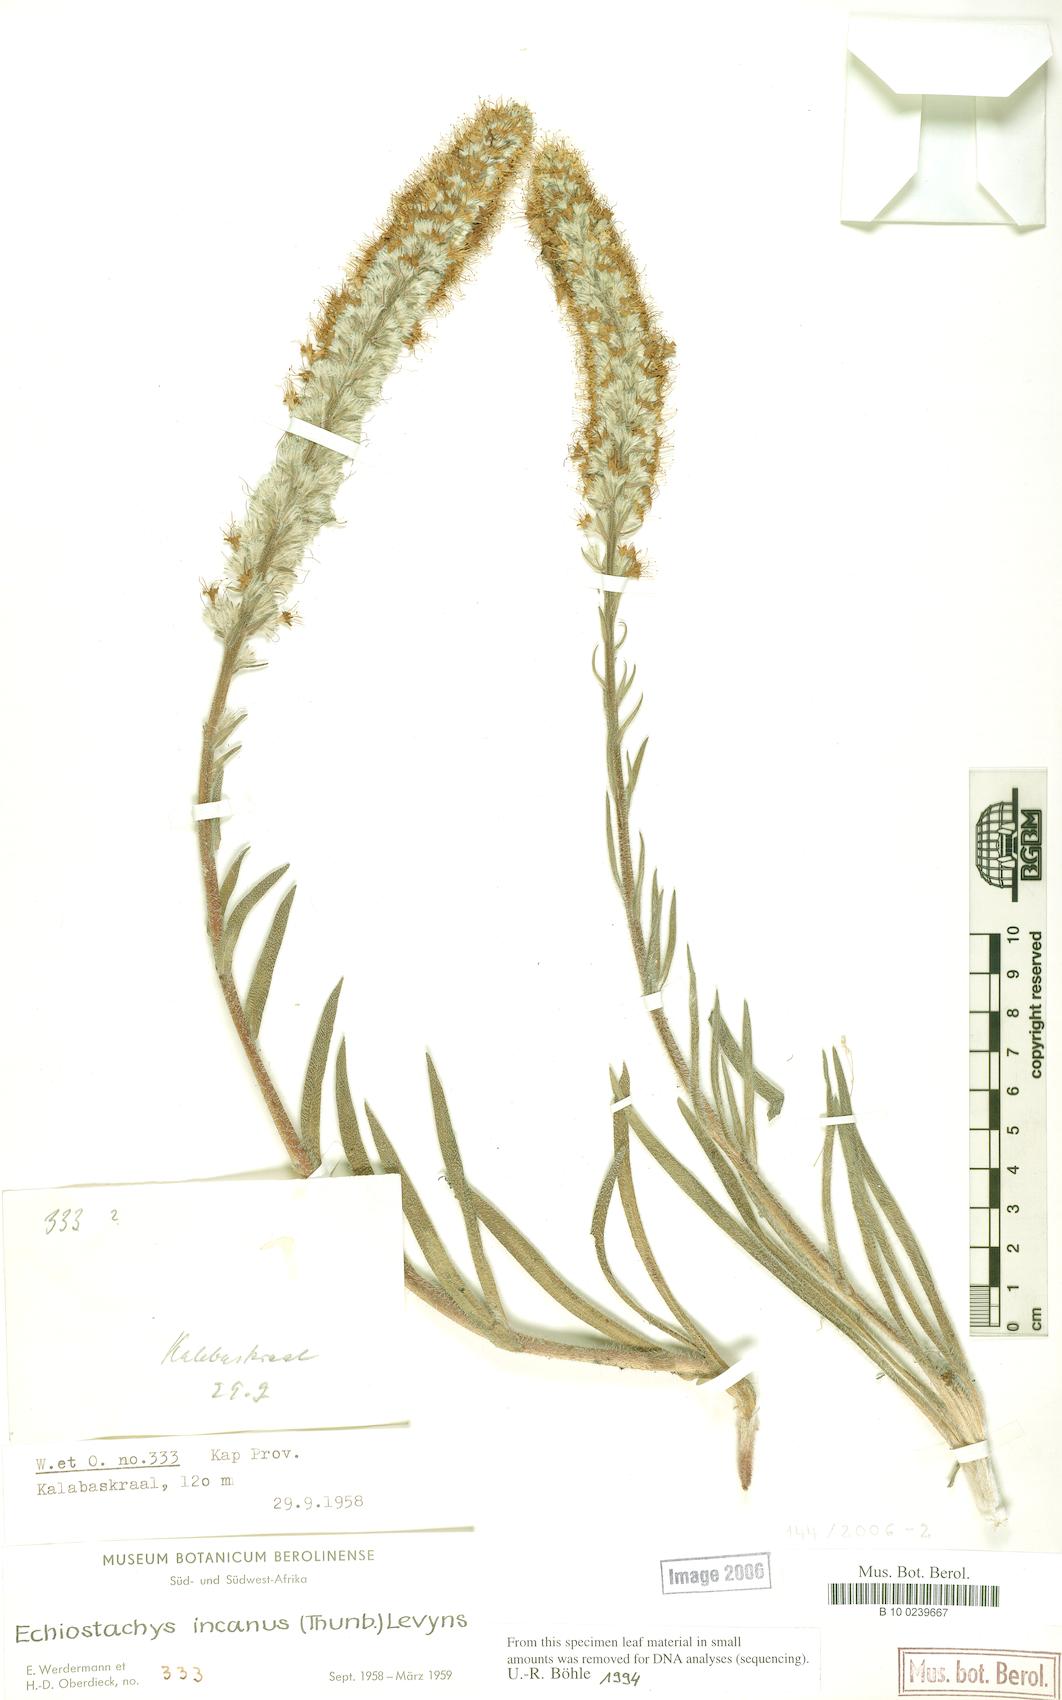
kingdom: Plantae
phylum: Tracheophyta
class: Magnoliopsida
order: Boraginales
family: Boraginaceae
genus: Lobostemon
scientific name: Lobostemon splendens
